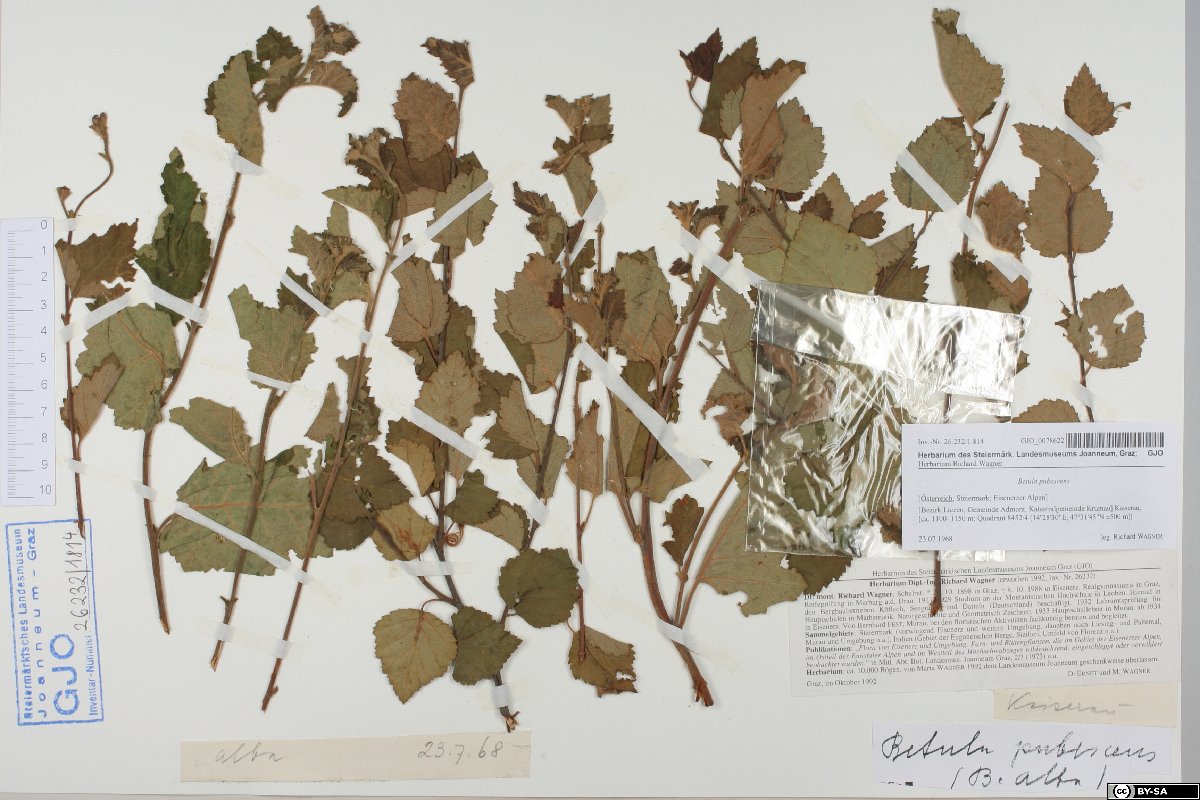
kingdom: Plantae
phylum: Tracheophyta
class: Magnoliopsida
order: Fagales
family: Betulaceae
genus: Betula
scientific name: Betula pubescens
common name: Downy birch
